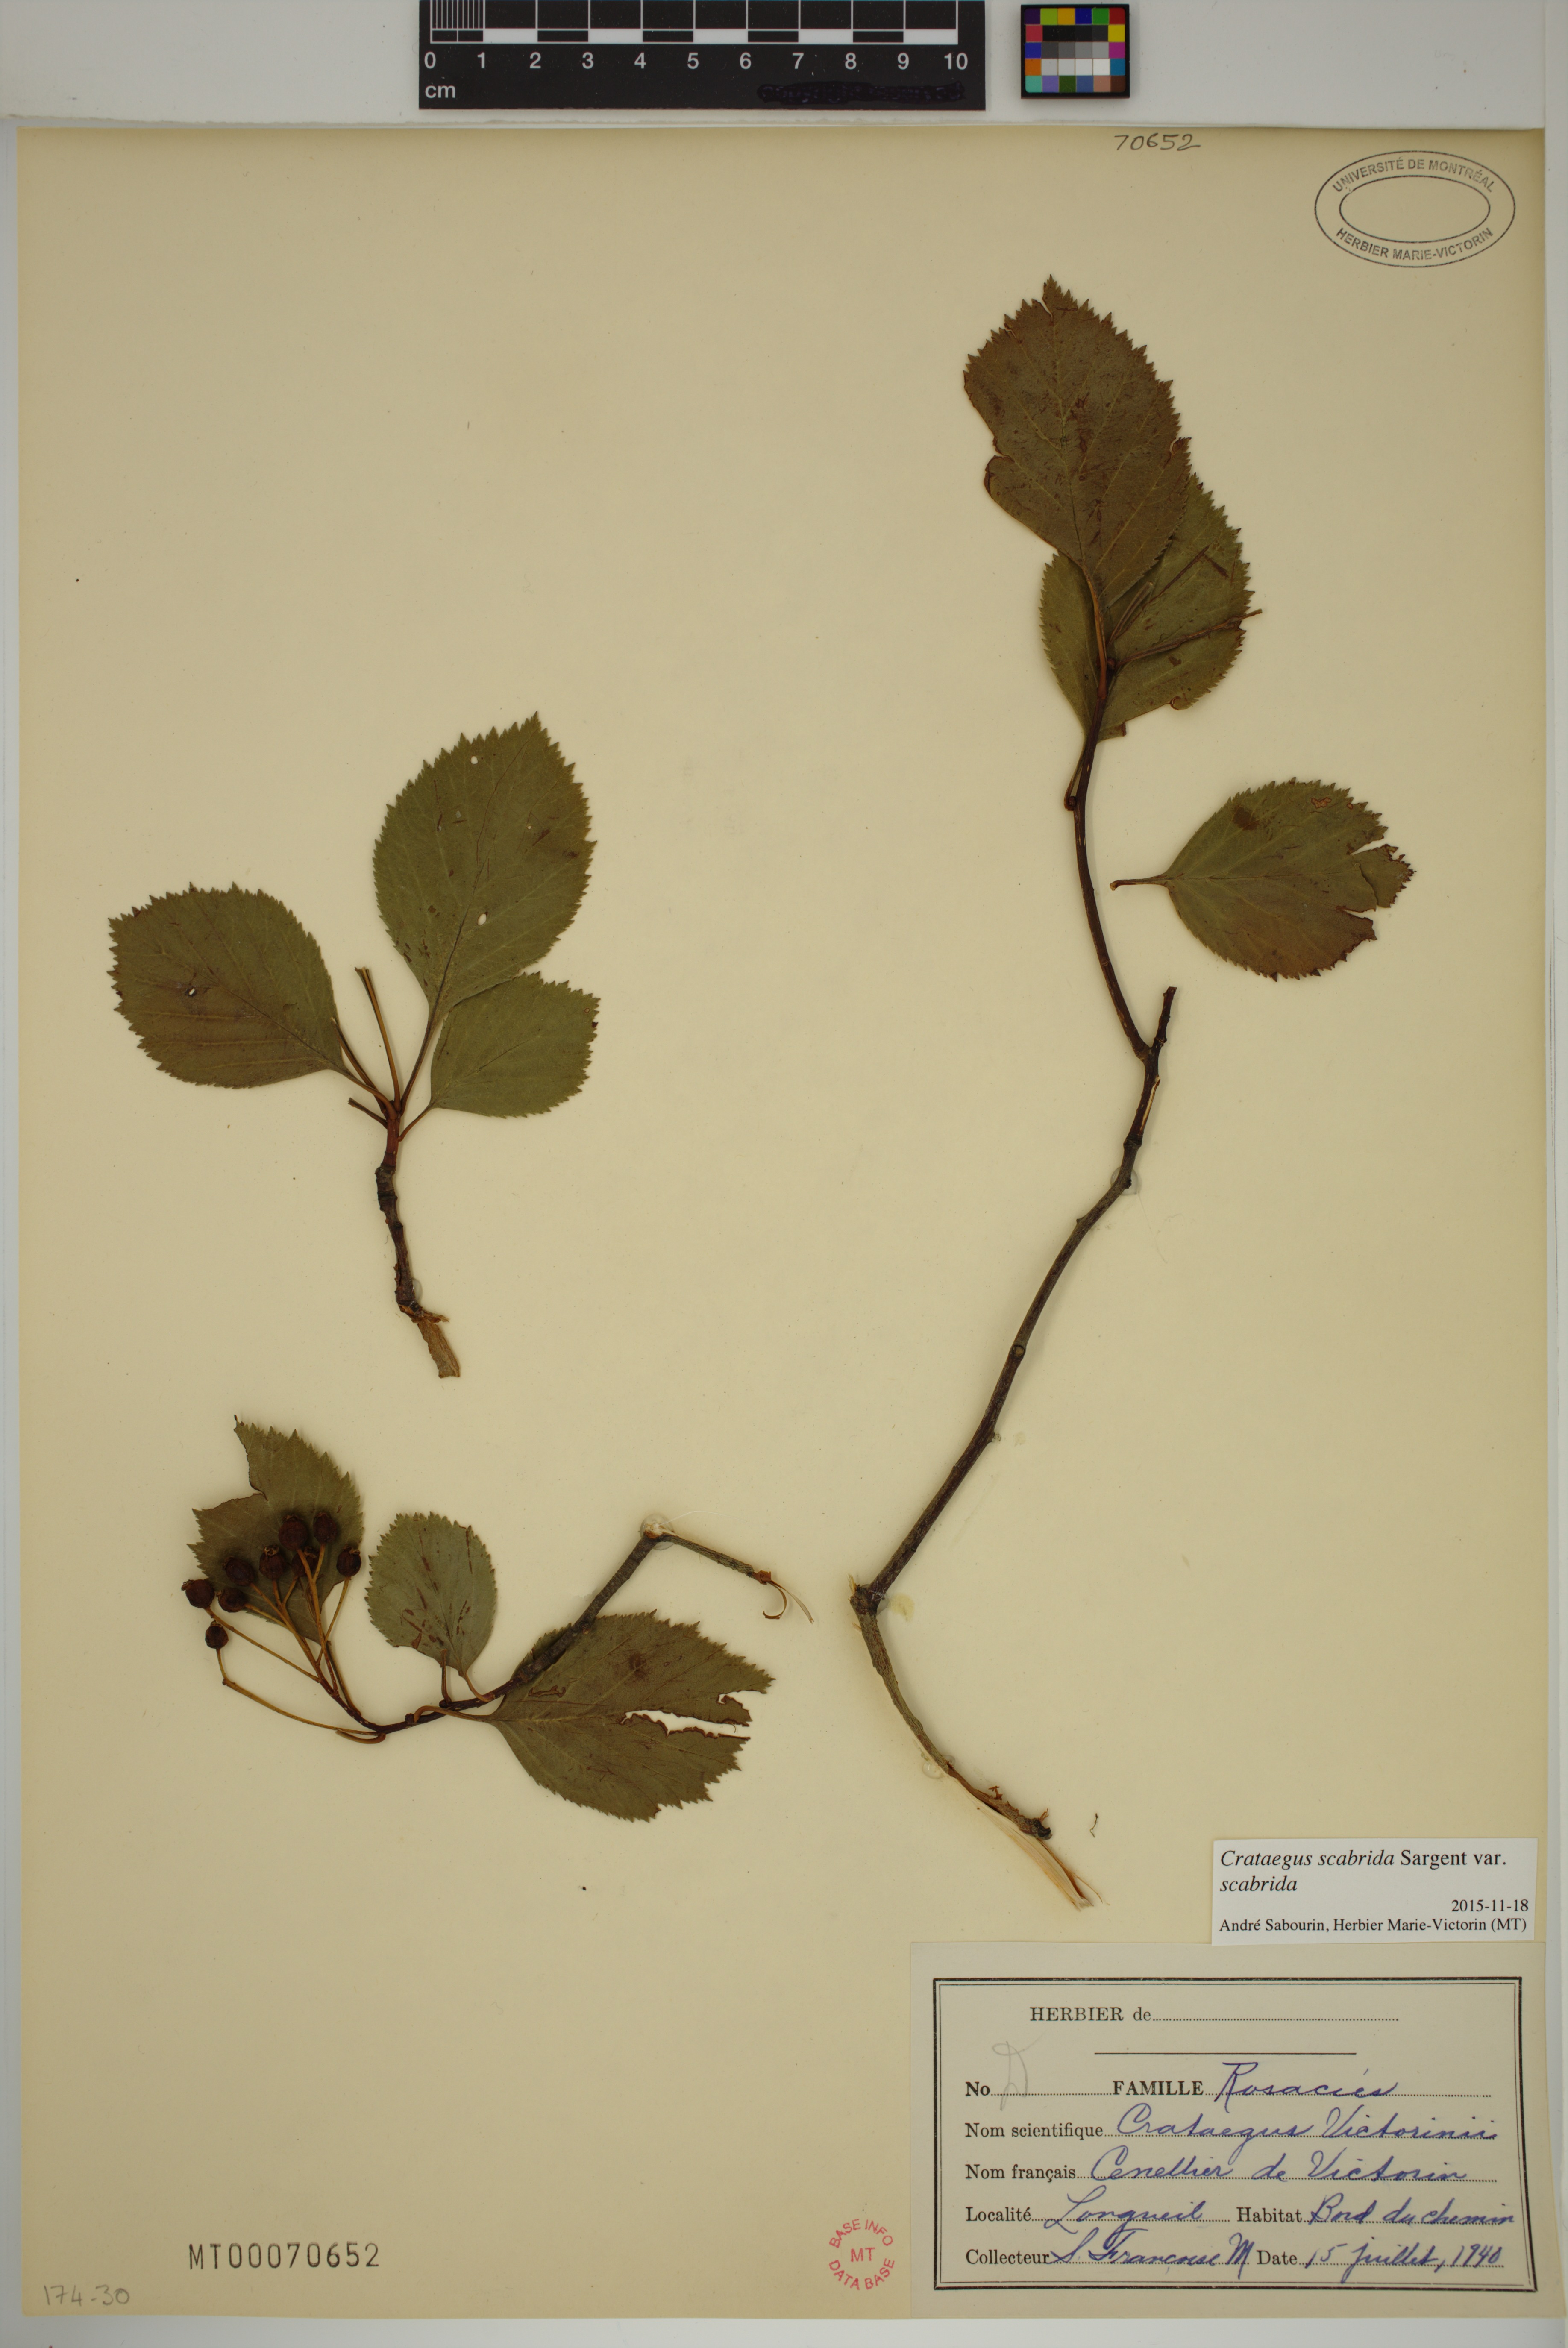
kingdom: Plantae
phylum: Tracheophyta
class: Magnoliopsida
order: Rosales
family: Rosaceae
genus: Crataegus
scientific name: Crataegus macracantha
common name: Large-thorn hawthorn
